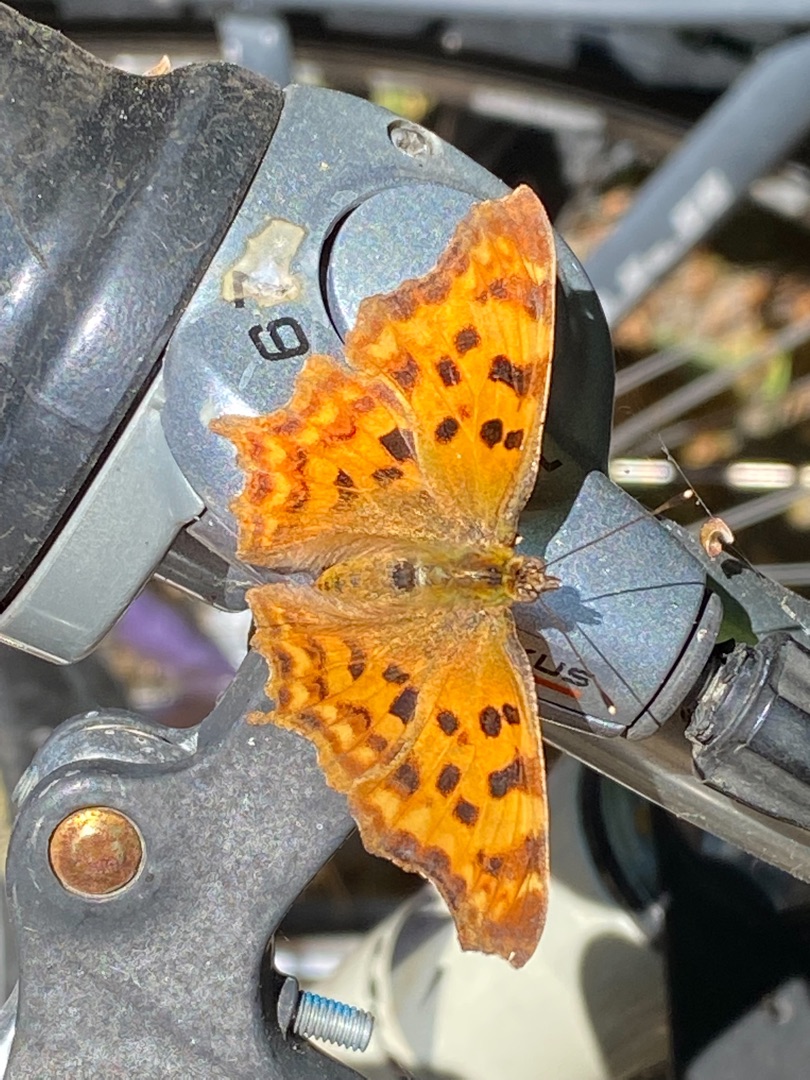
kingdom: Animalia
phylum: Arthropoda
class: Insecta
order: Lepidoptera
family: Nymphalidae
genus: Polygonia
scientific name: Polygonia c-album
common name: Det hvide C
